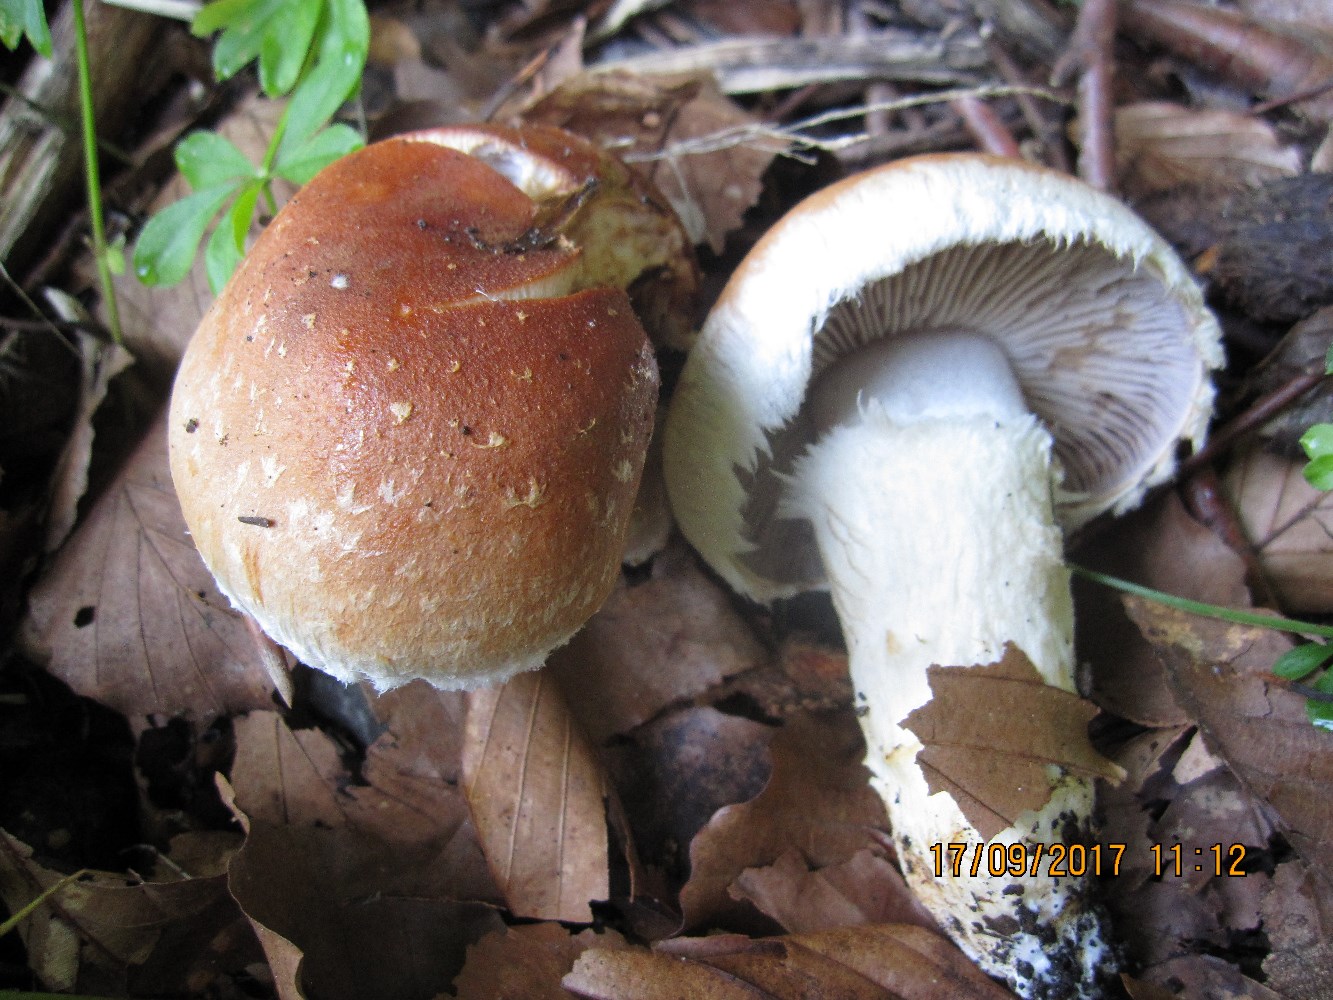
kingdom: Fungi
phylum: Basidiomycota
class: Agaricomycetes
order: Agaricales
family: Cortinariaceae
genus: Phlegmacium
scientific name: Phlegmacium vulpinum
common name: ringbæltet slørhat
